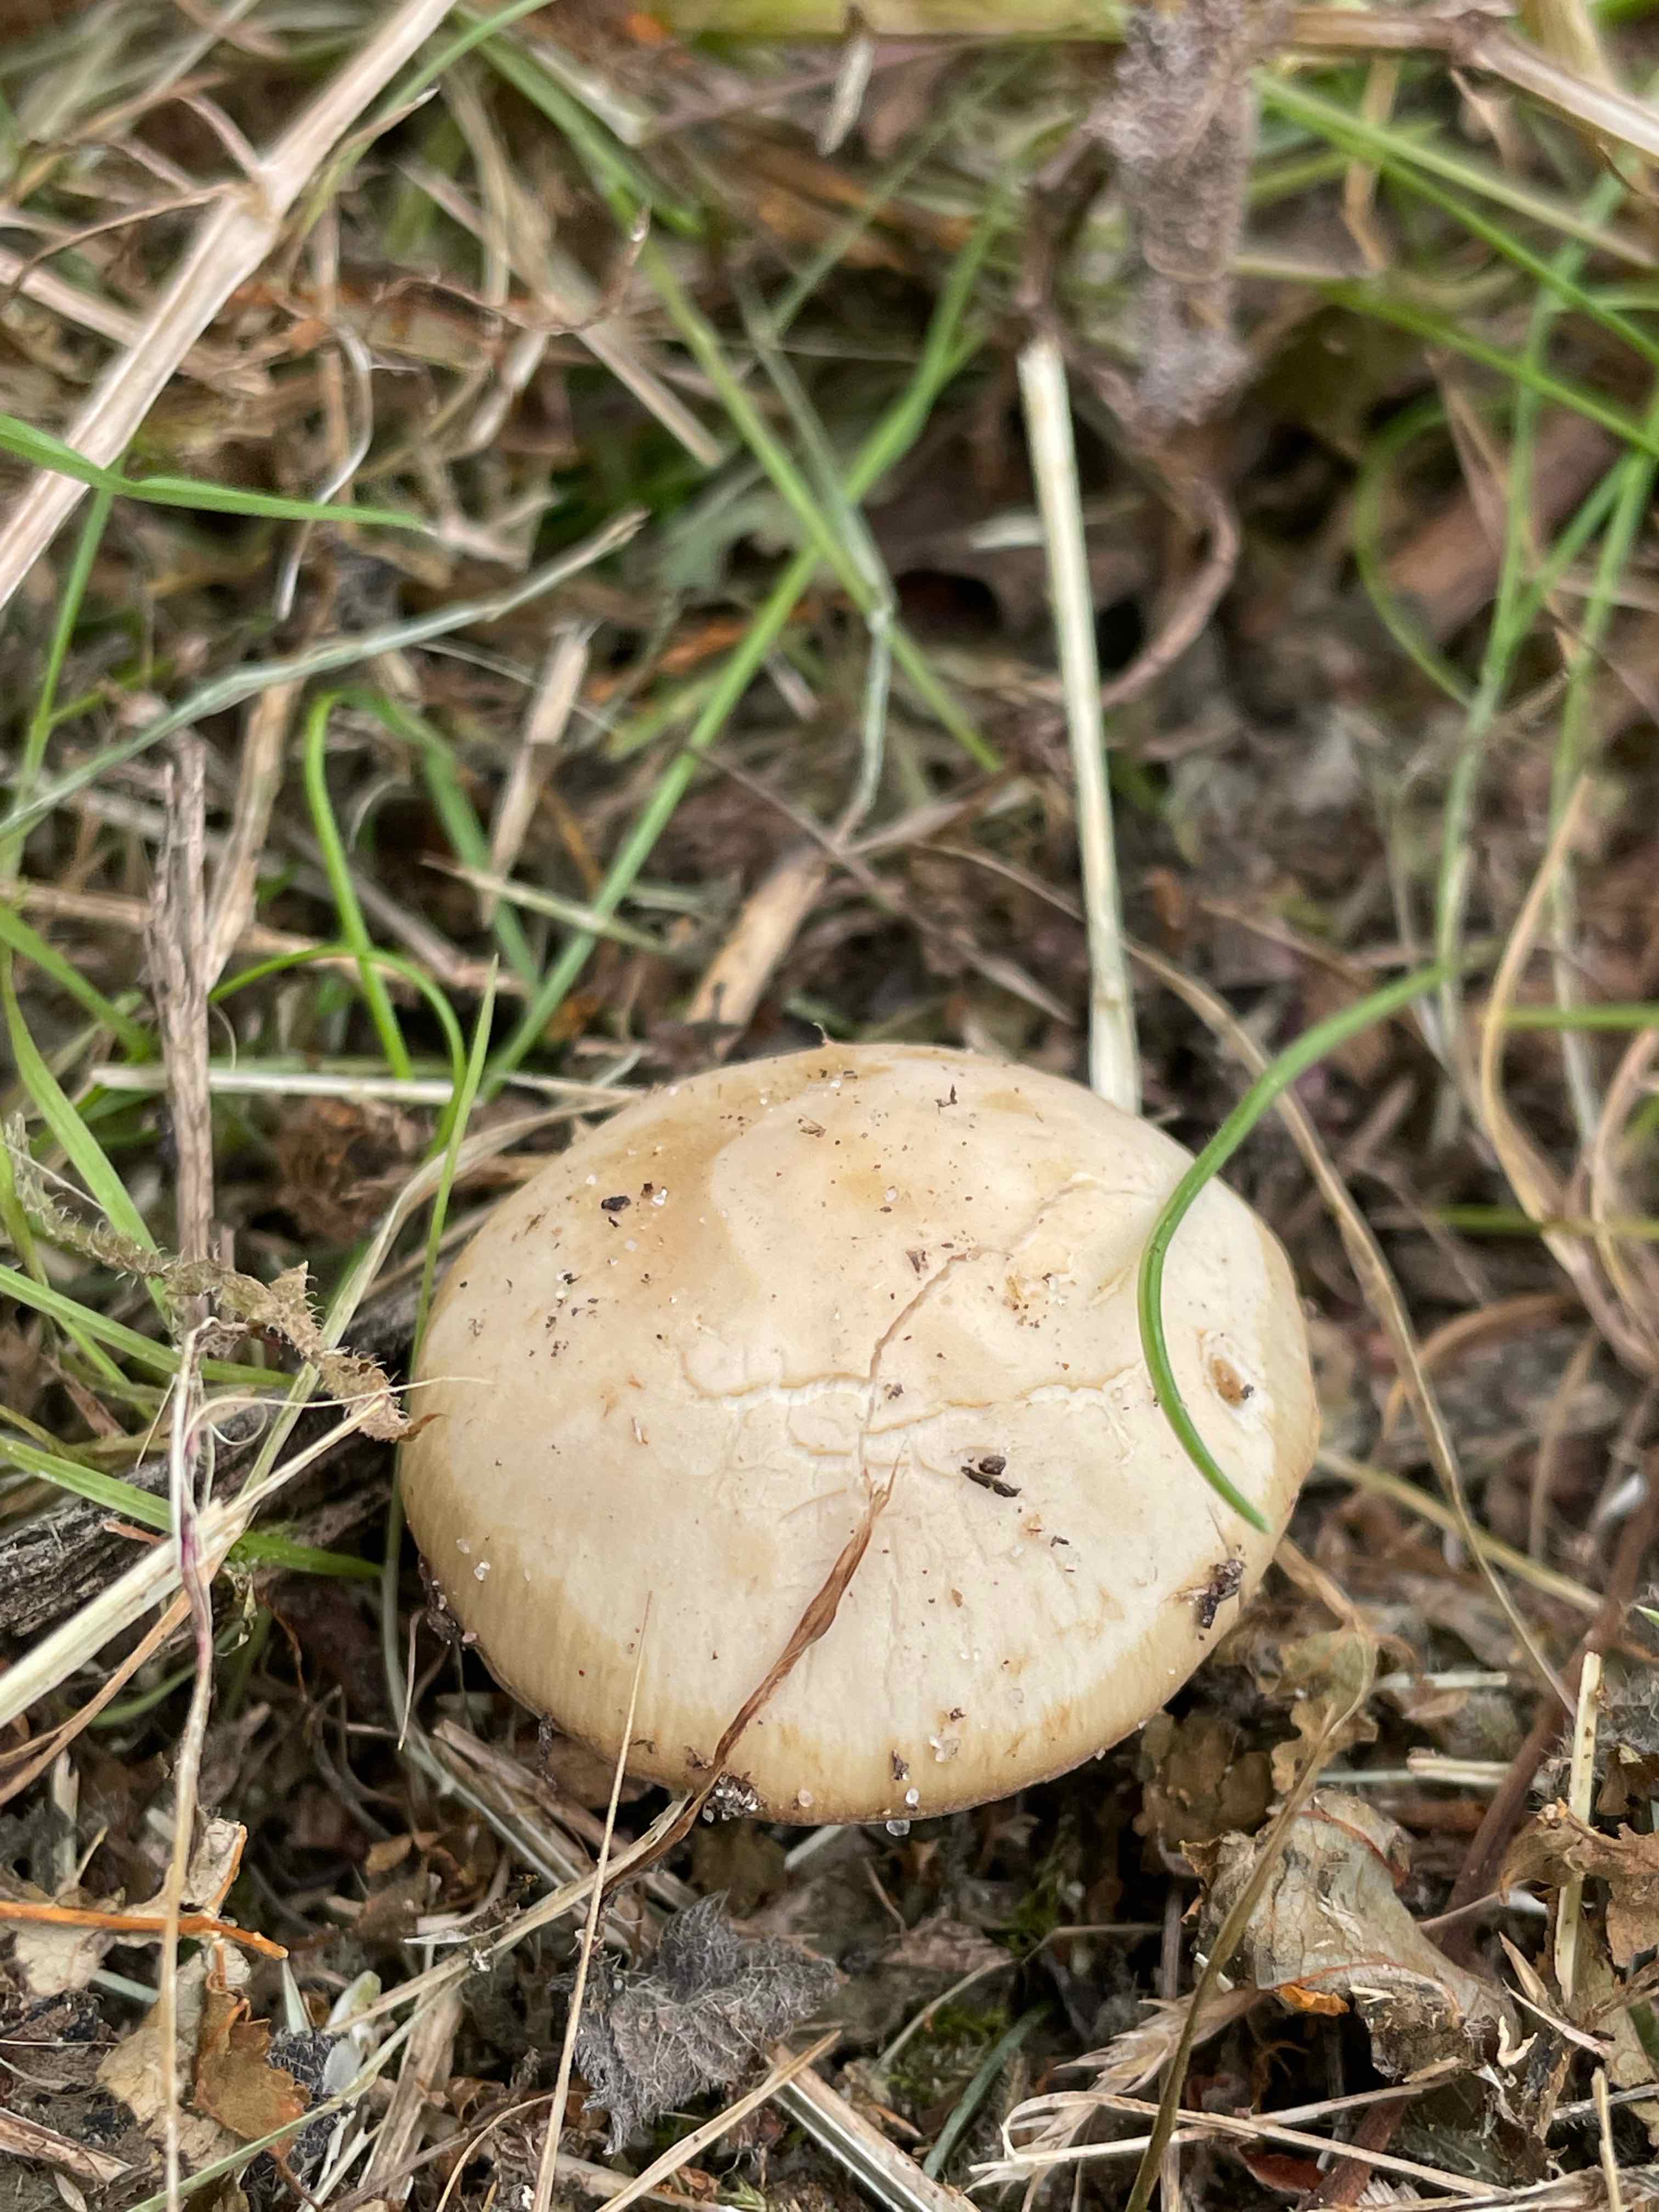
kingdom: Fungi
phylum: Basidiomycota
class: Agaricomycetes
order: Agaricales
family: Psathyrellaceae
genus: Psathyrella
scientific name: Psathyrella
